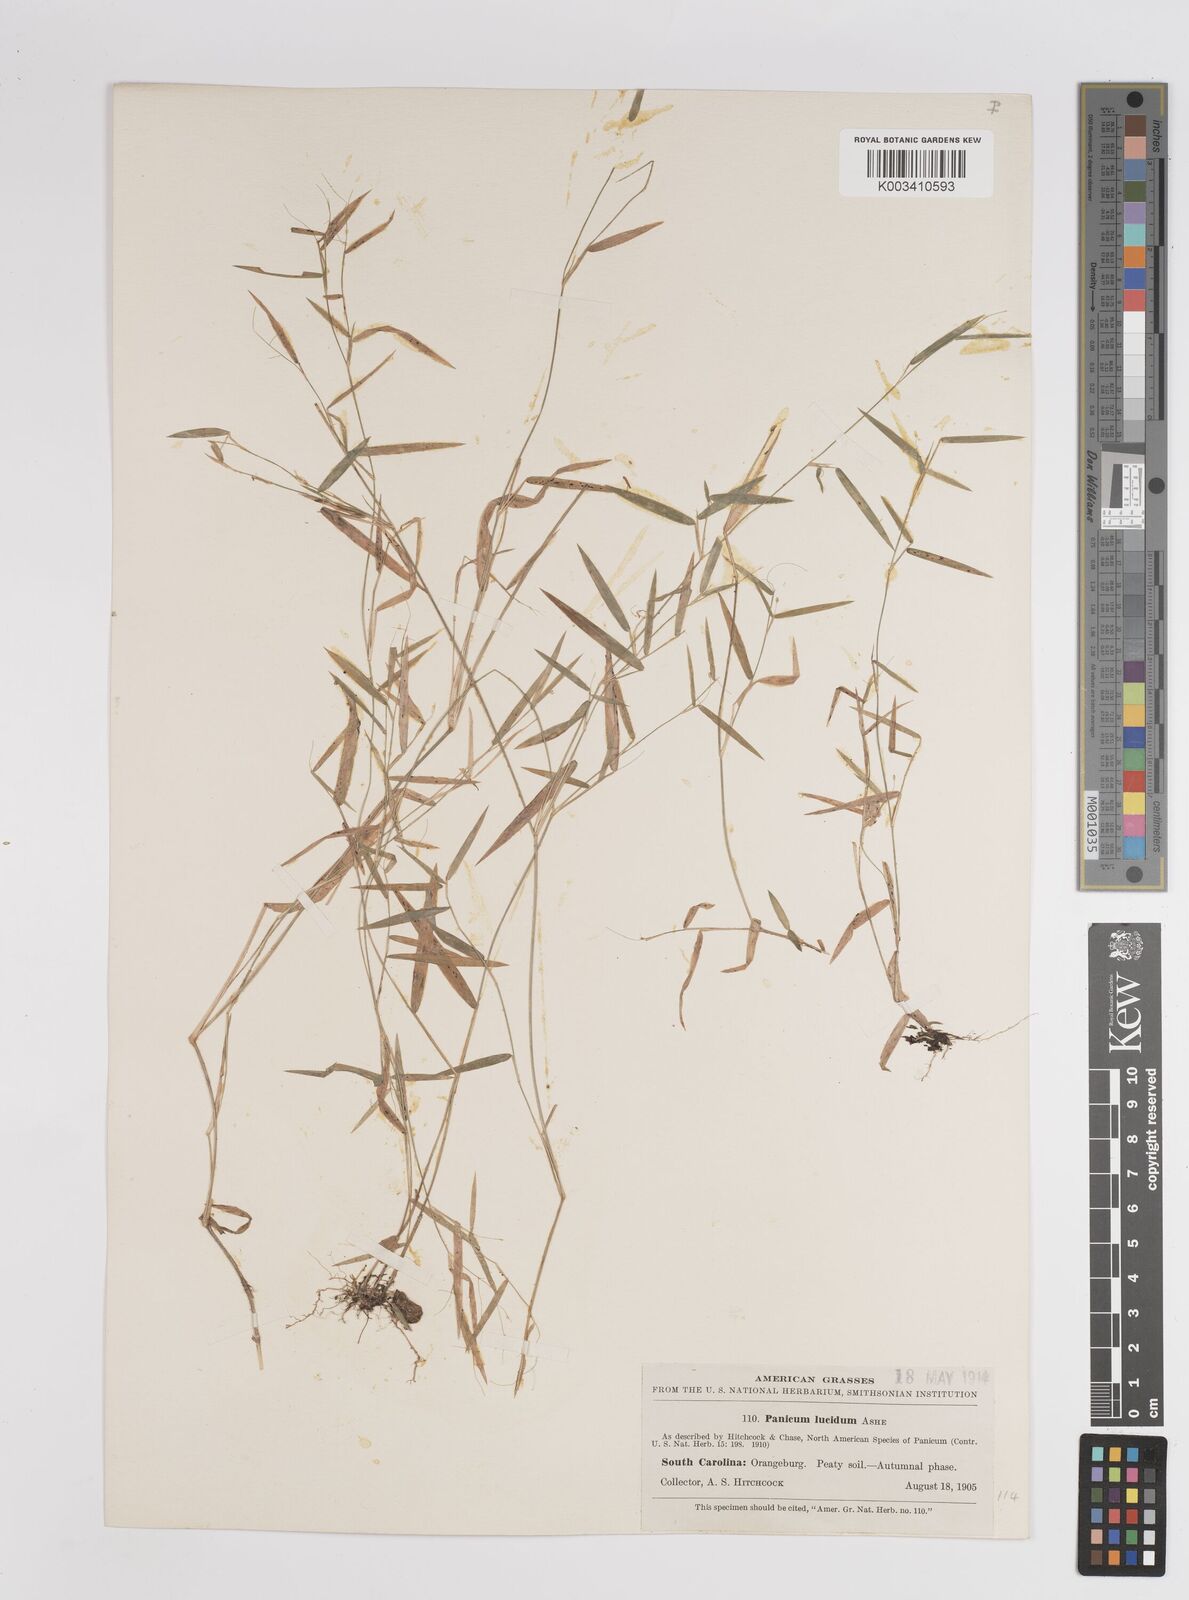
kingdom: Plantae
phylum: Tracheophyta
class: Liliopsida
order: Poales
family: Poaceae
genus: Dichanthelium
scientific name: Dichanthelium lucidum
